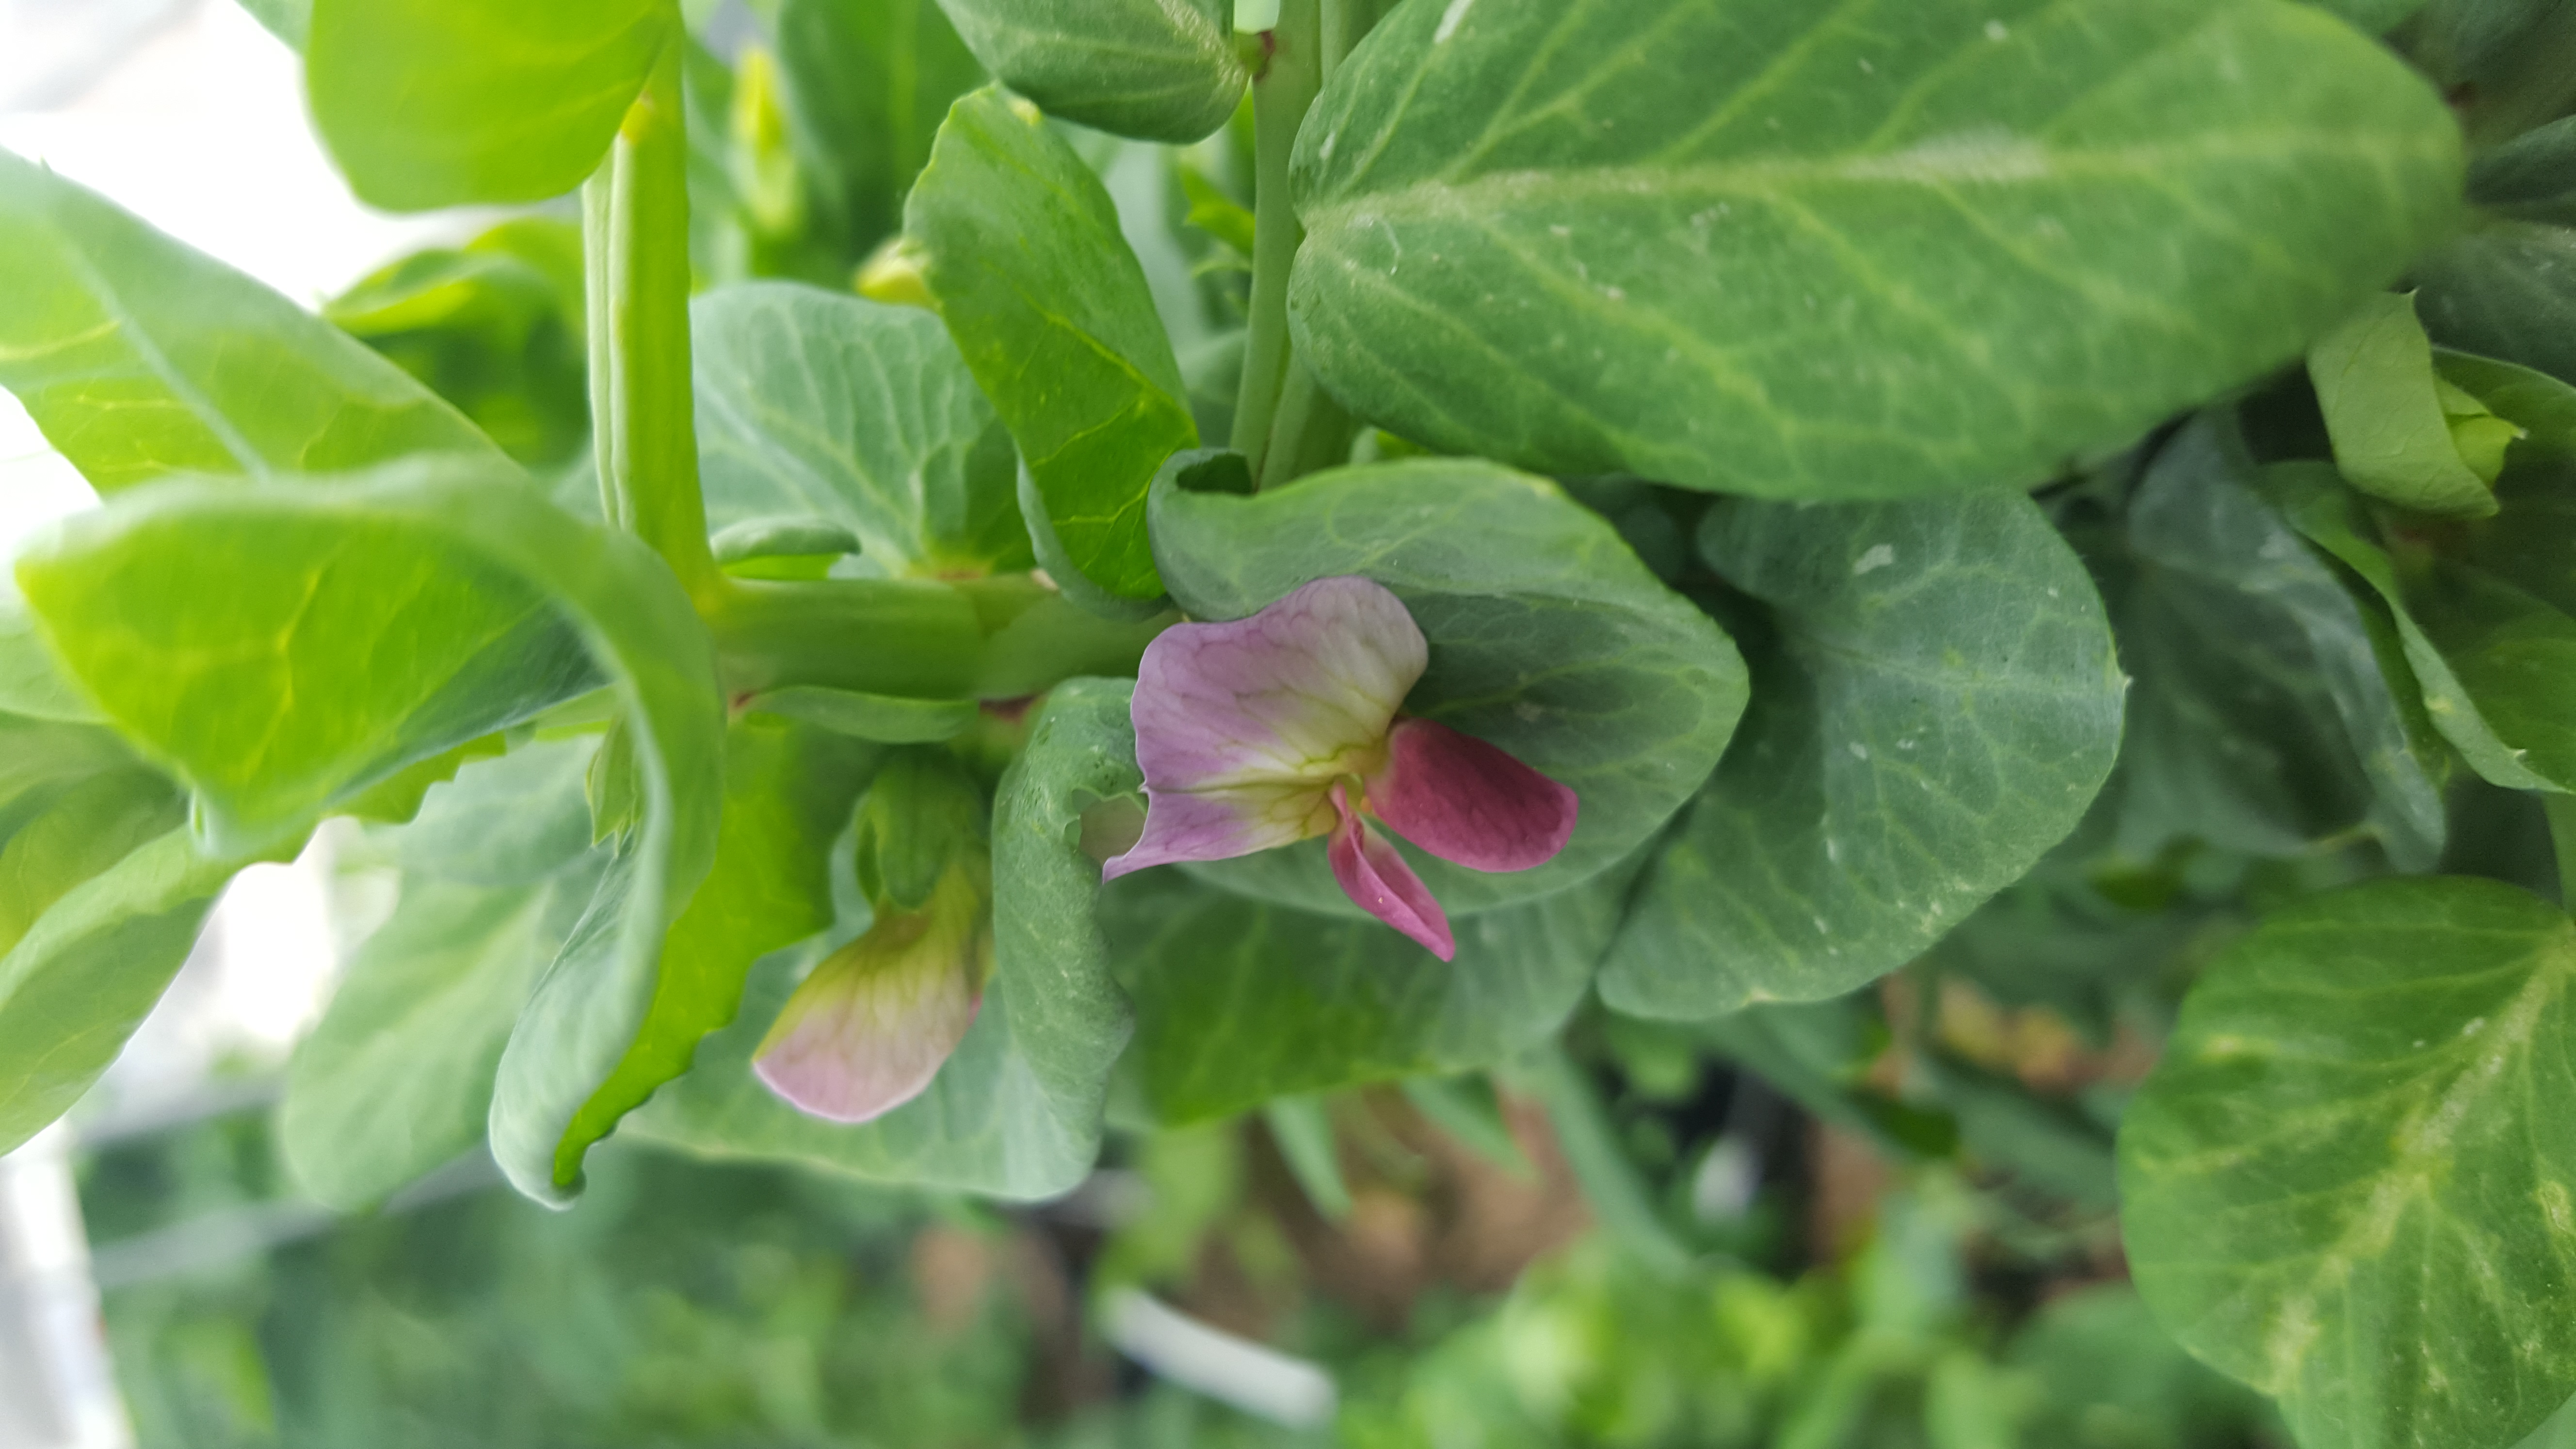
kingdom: Plantae
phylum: Tracheophyta
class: Magnoliopsida
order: Fabales
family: Fabaceae
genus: Lathyrus
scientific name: Lathyrus oleraceus
